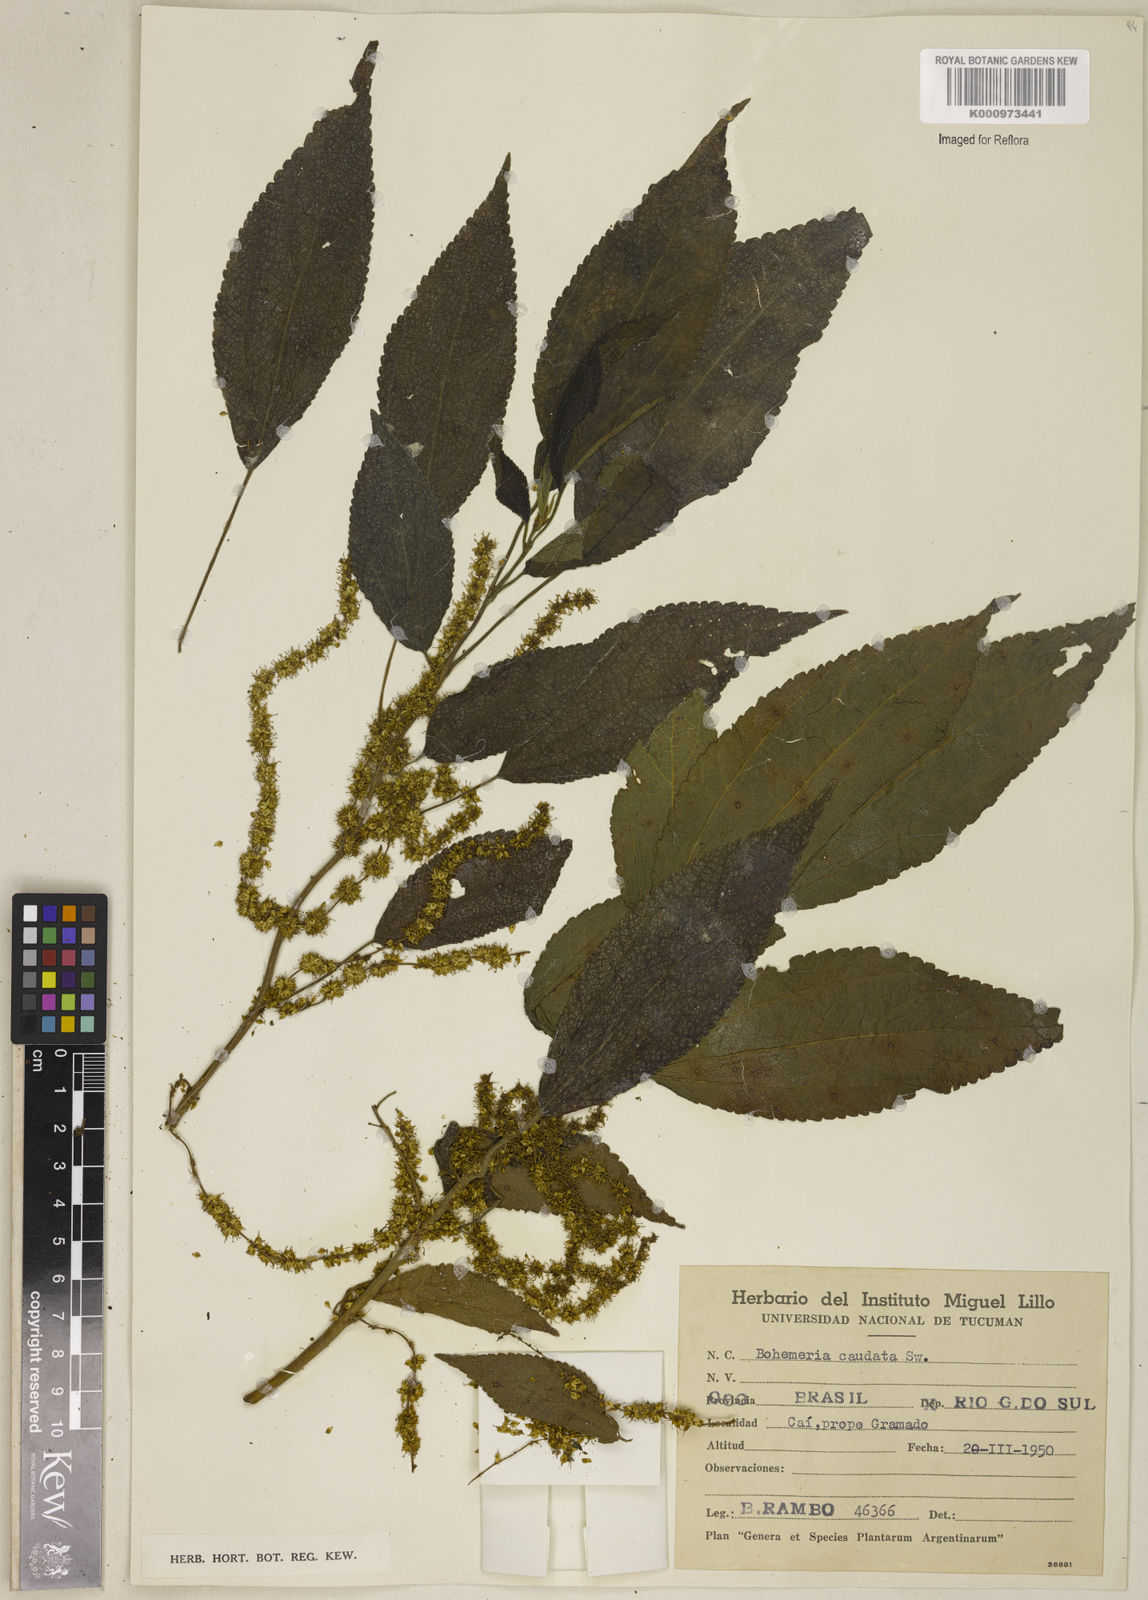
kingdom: Plantae
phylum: Tracheophyta
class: Magnoliopsida
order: Rosales
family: Urticaceae
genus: Boehmeria
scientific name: Boehmeria caudata
